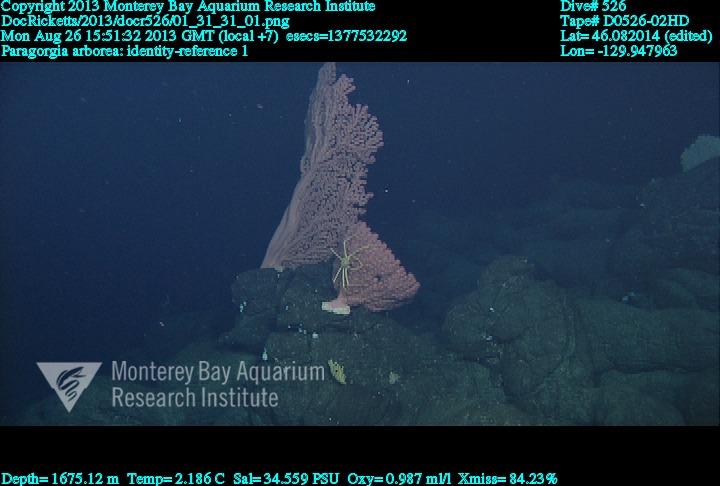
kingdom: Animalia
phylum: Cnidaria
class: Anthozoa
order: Scleralcyonacea
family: Coralliidae
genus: Paragorgia
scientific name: Paragorgia arborea
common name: Bubble gum coral
